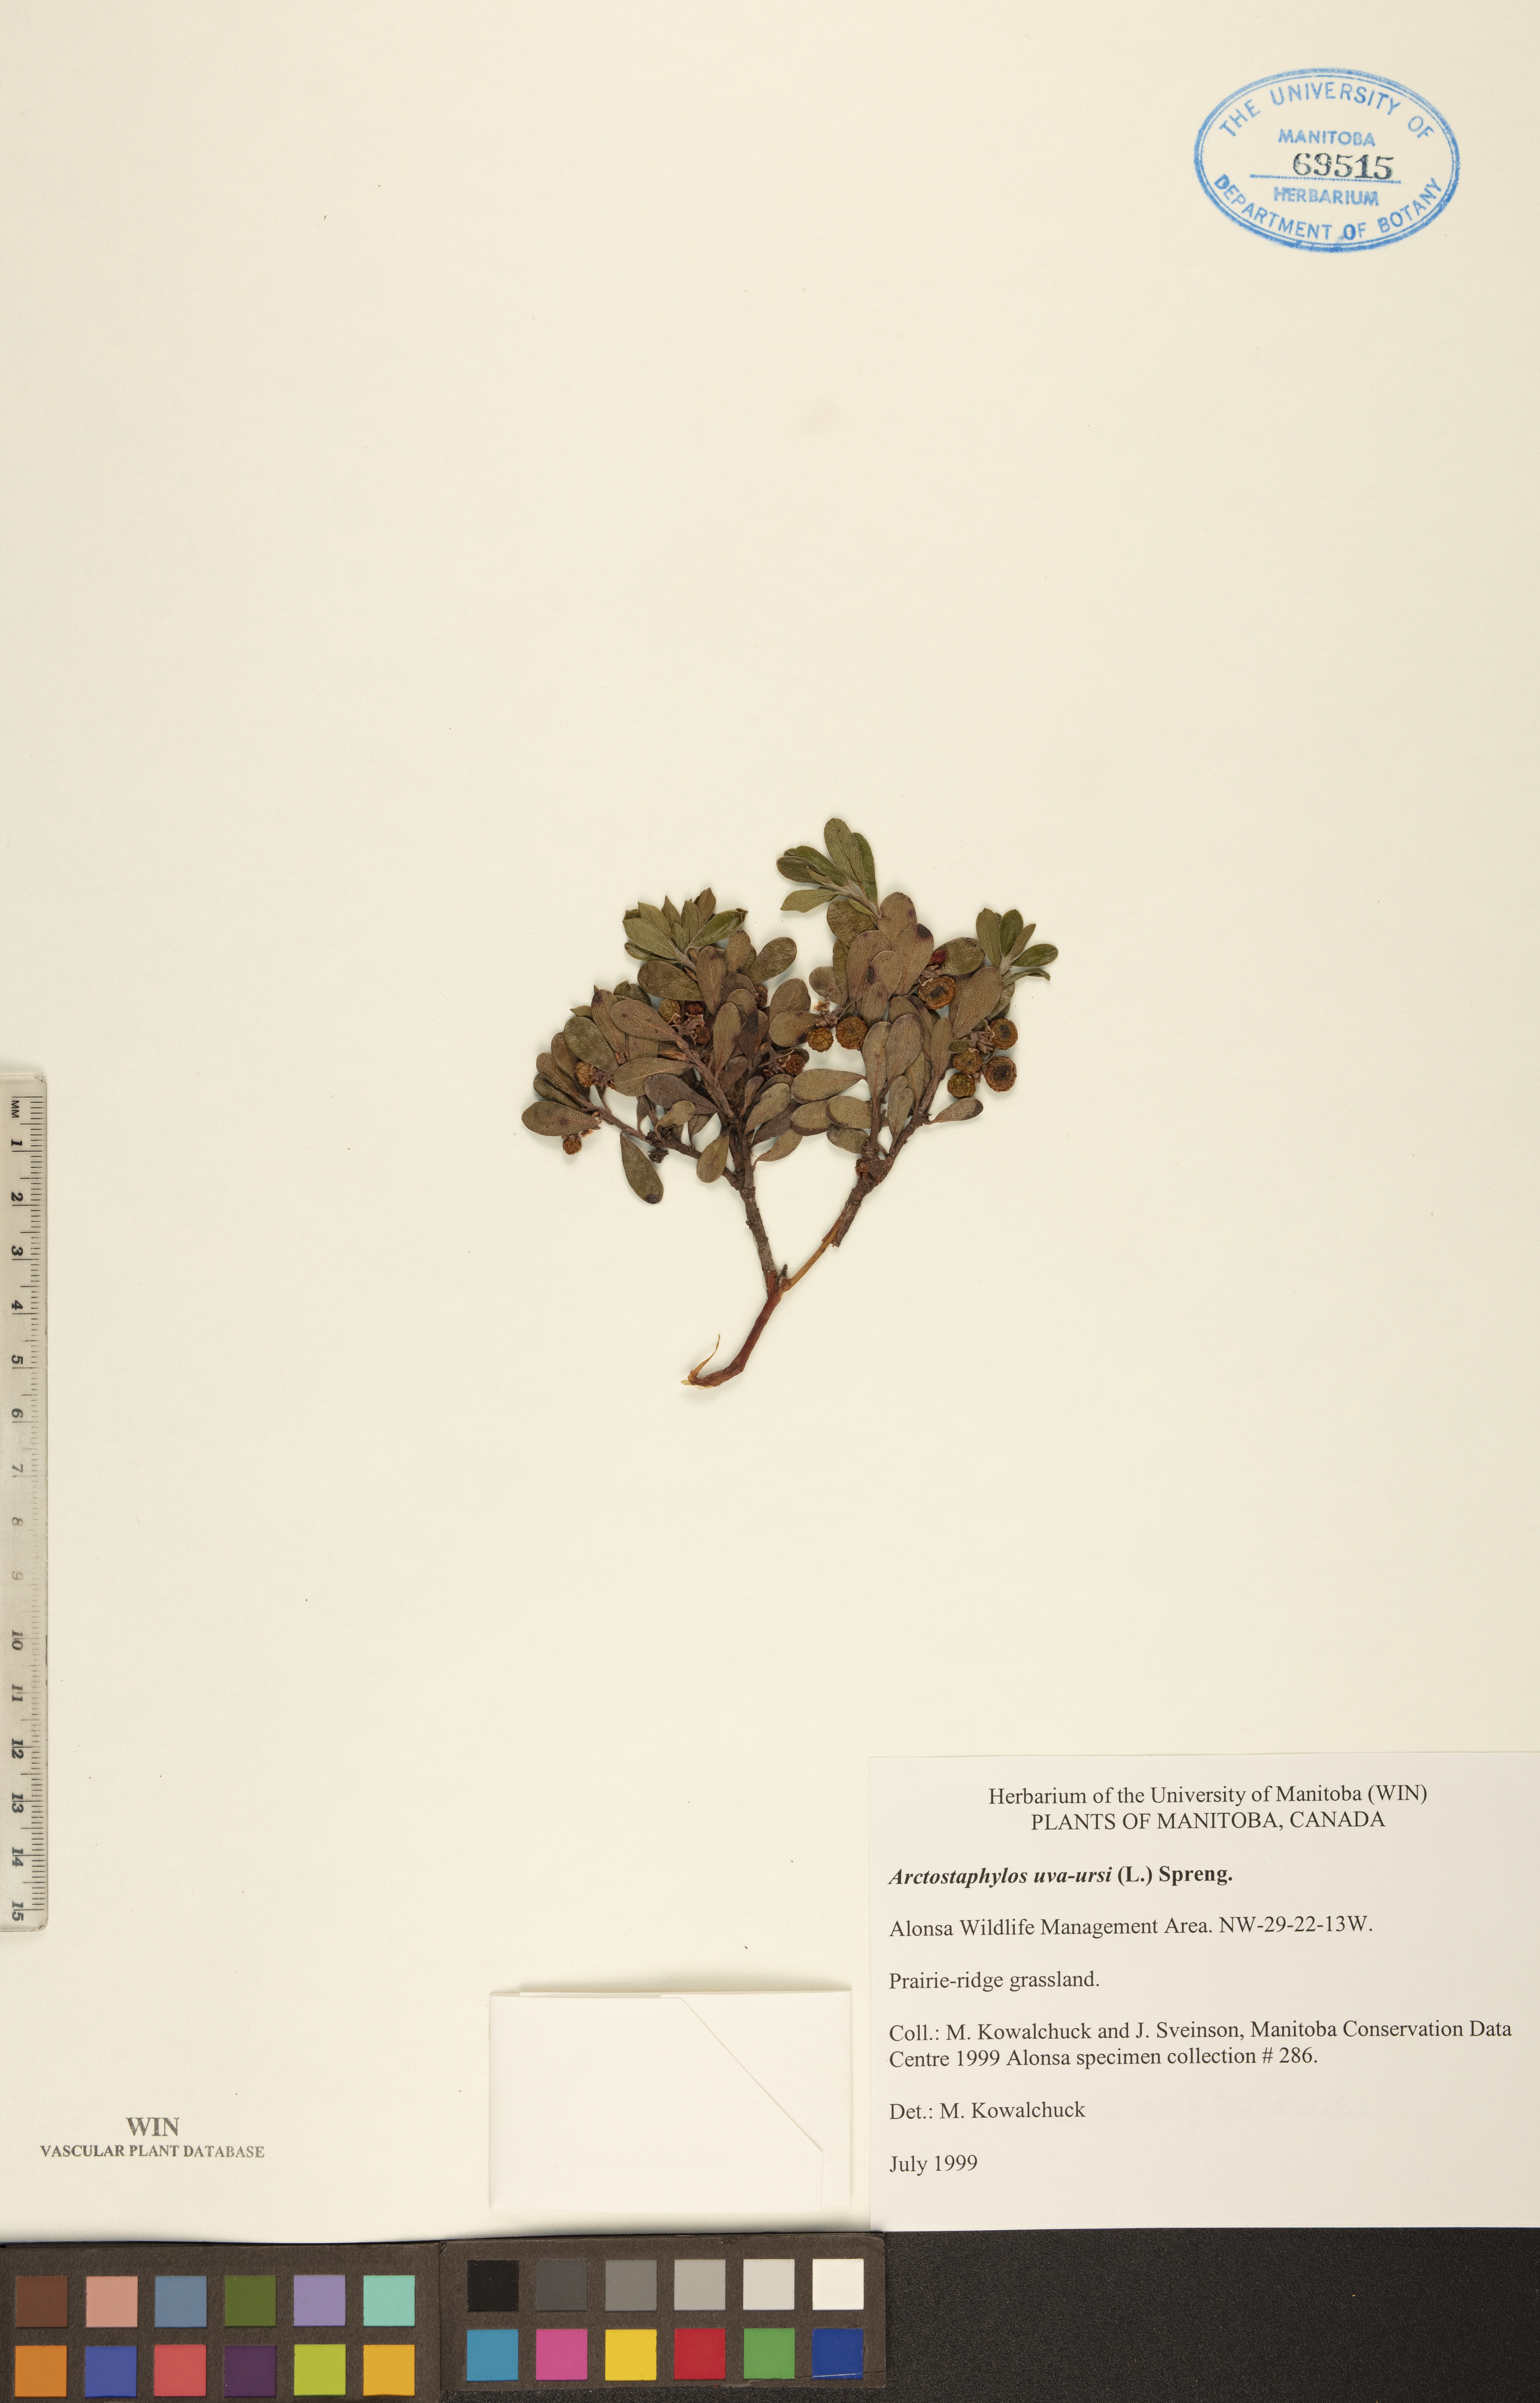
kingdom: Plantae
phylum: Tracheophyta
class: Magnoliopsida
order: Ericales
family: Ericaceae
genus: Arctostaphylos
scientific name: Arctostaphylos uva-ursi
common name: Bearberry
